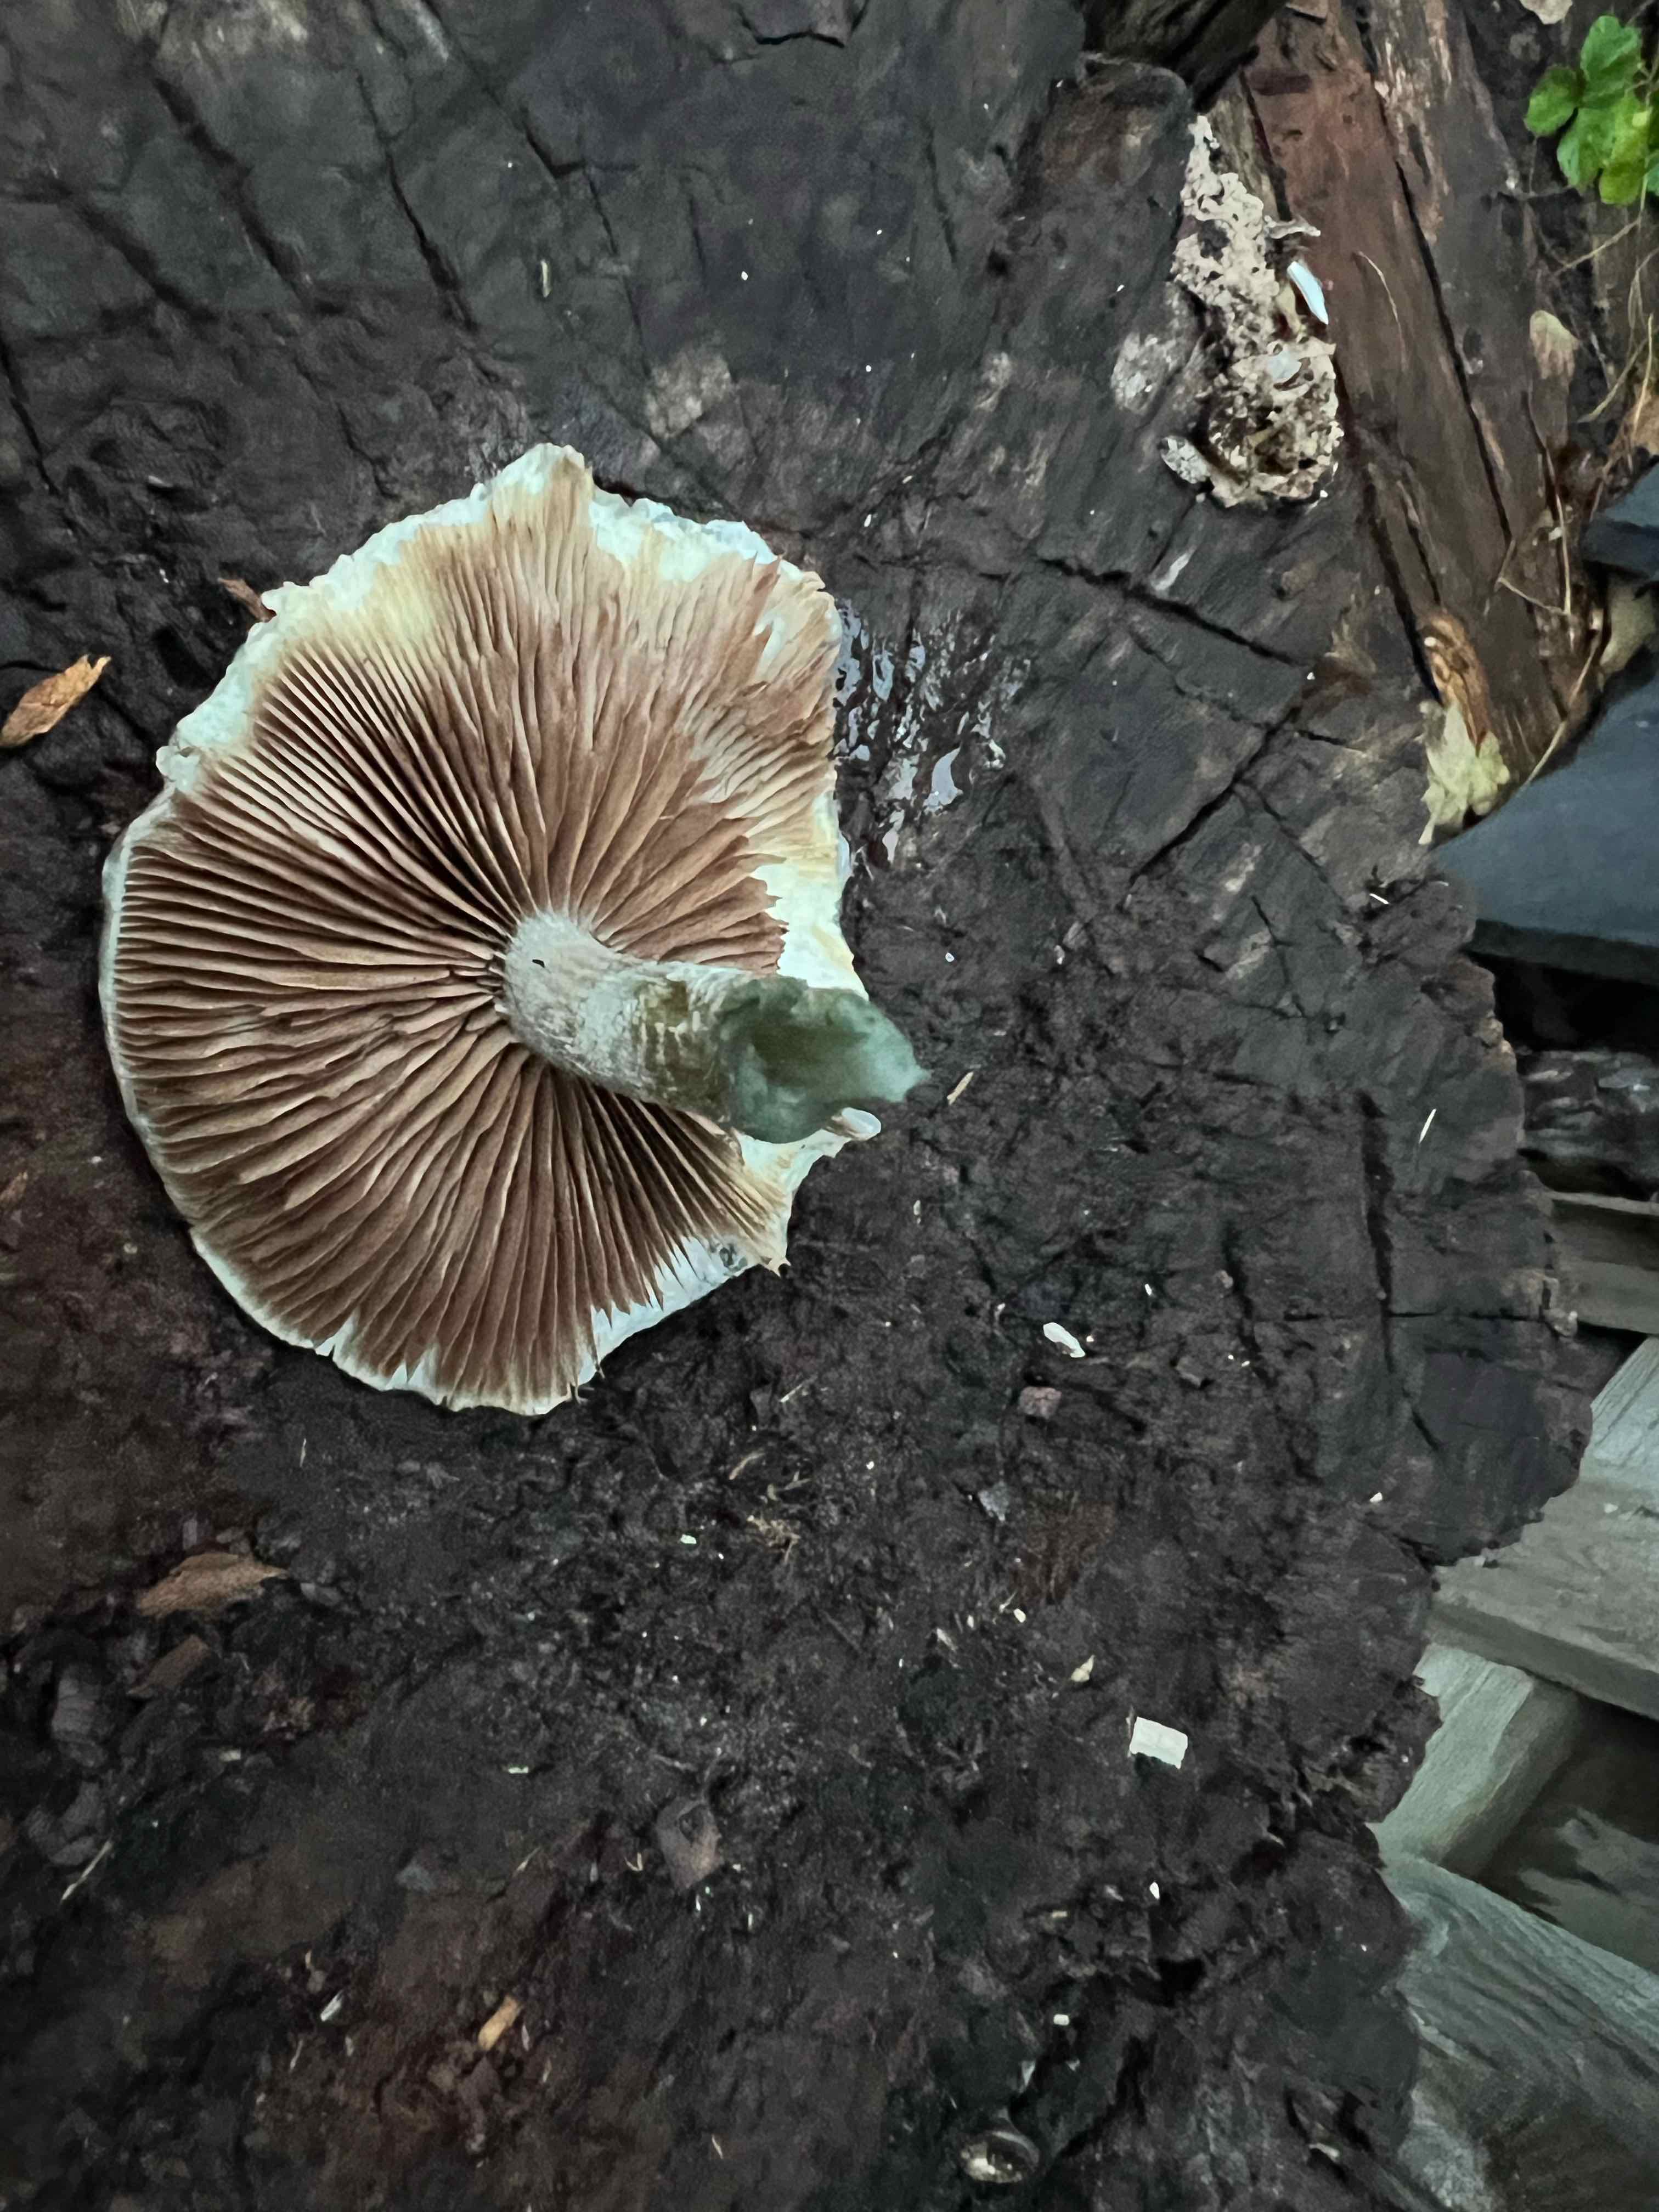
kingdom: Fungi
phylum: Basidiomycota
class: Agaricomycetes
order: Agaricales
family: Strophariaceae
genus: Stropharia
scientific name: Stropharia cyanea
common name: blågrøn bredblad
